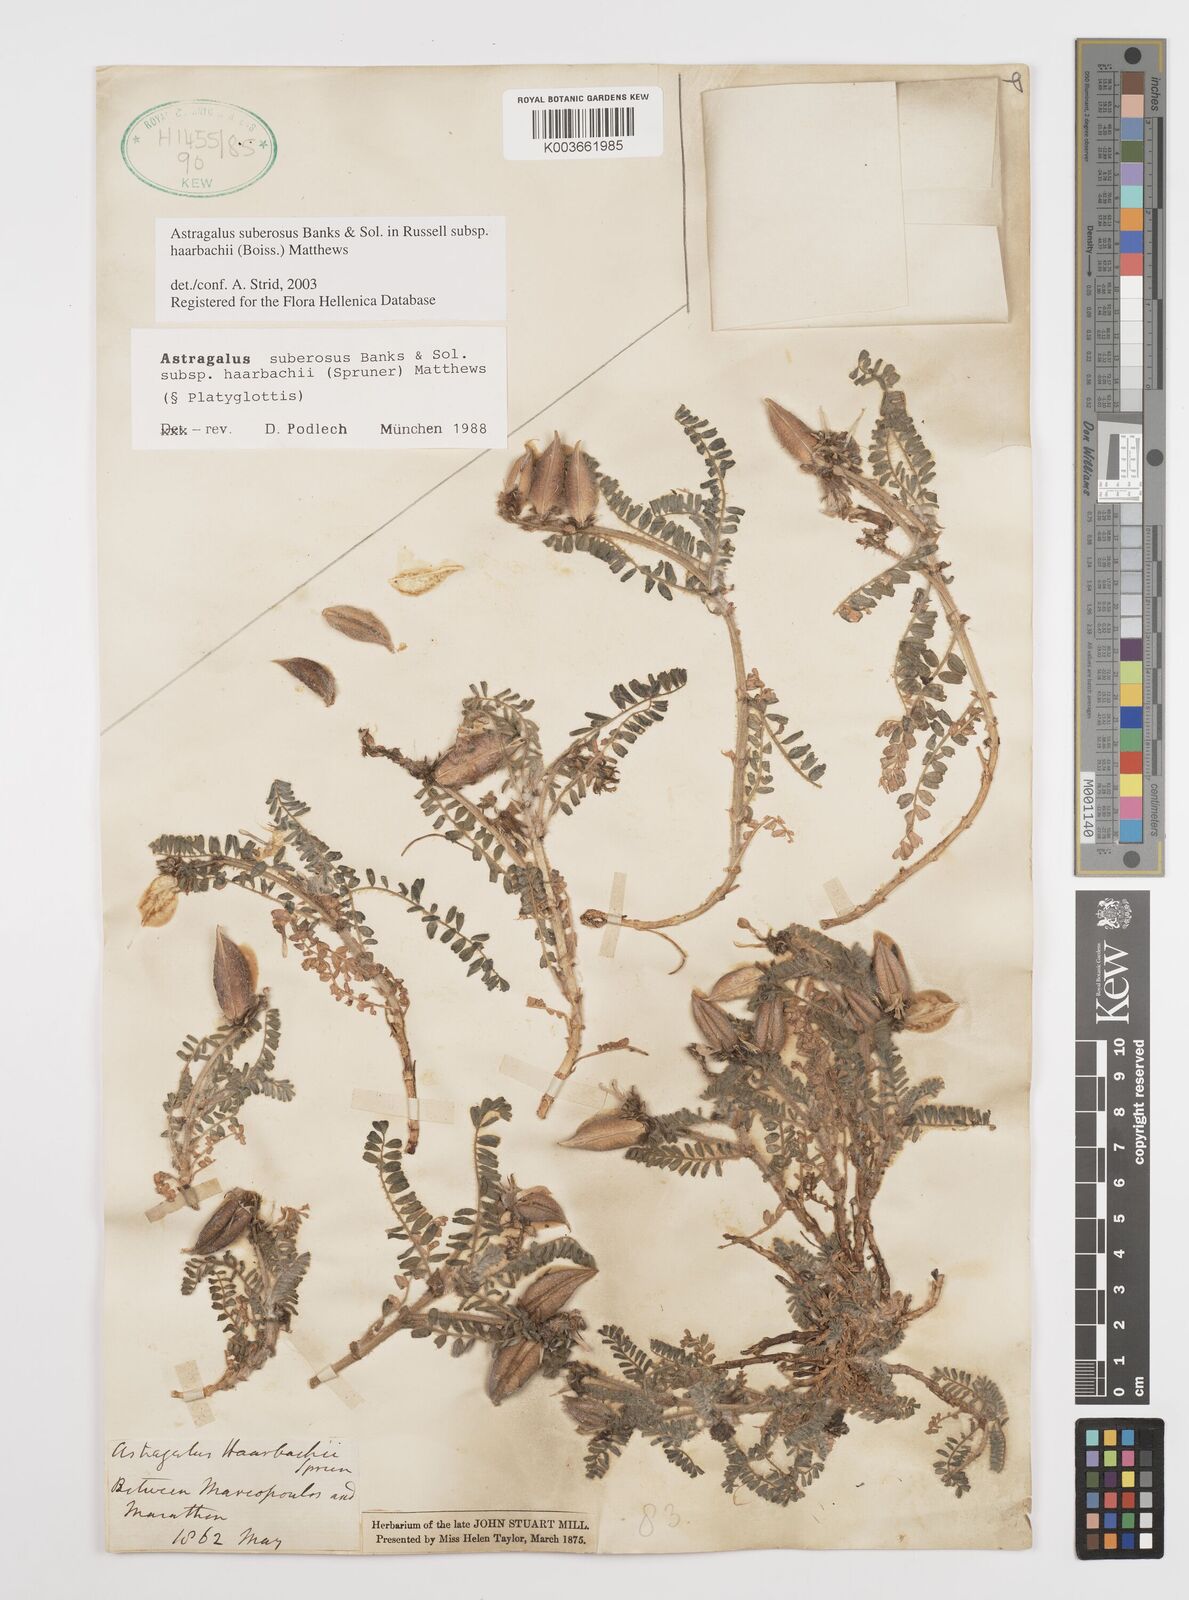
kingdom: Plantae
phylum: Tracheophyta
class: Magnoliopsida
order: Fabales
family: Fabaceae
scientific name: Fabaceae
